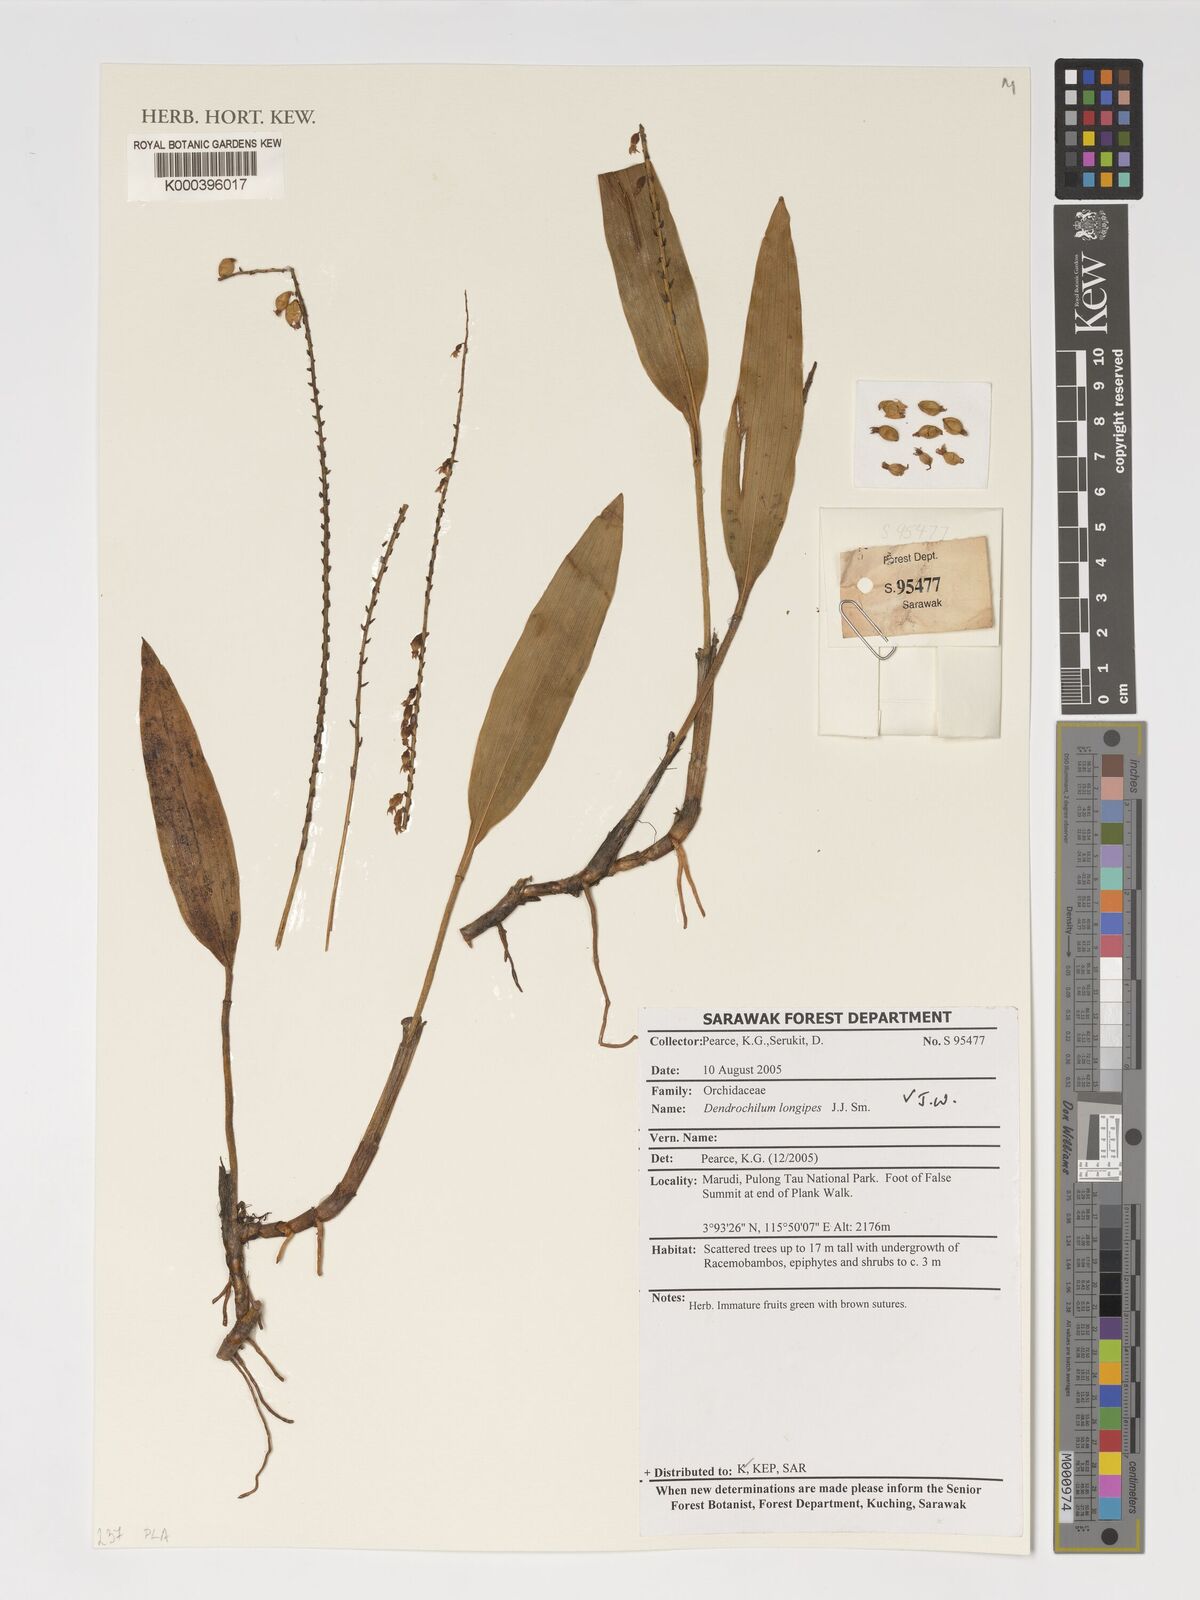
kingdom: Plantae
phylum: Tracheophyta
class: Liliopsida
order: Asparagales
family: Orchidaceae
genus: Coelogyne
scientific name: Coelogyne mantis
